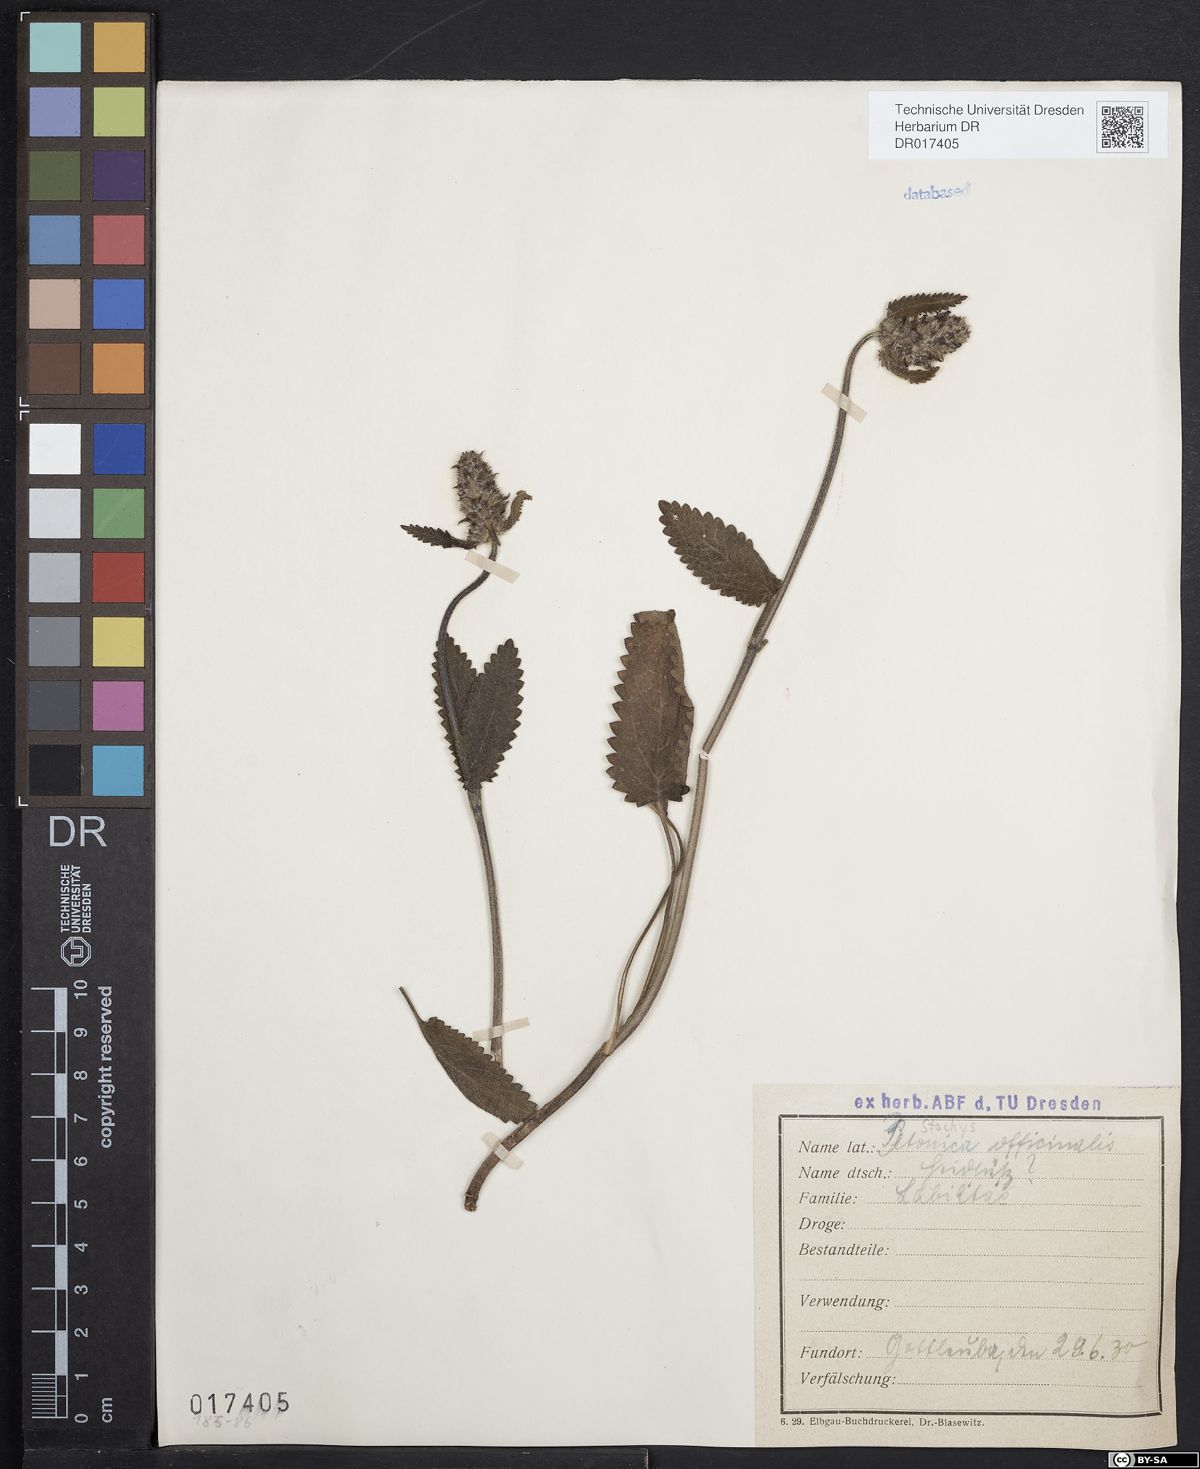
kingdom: Plantae
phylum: Tracheophyta
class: Magnoliopsida
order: Lamiales
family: Lamiaceae
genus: Betonica
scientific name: Betonica officinalis
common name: Bishop's-wort
